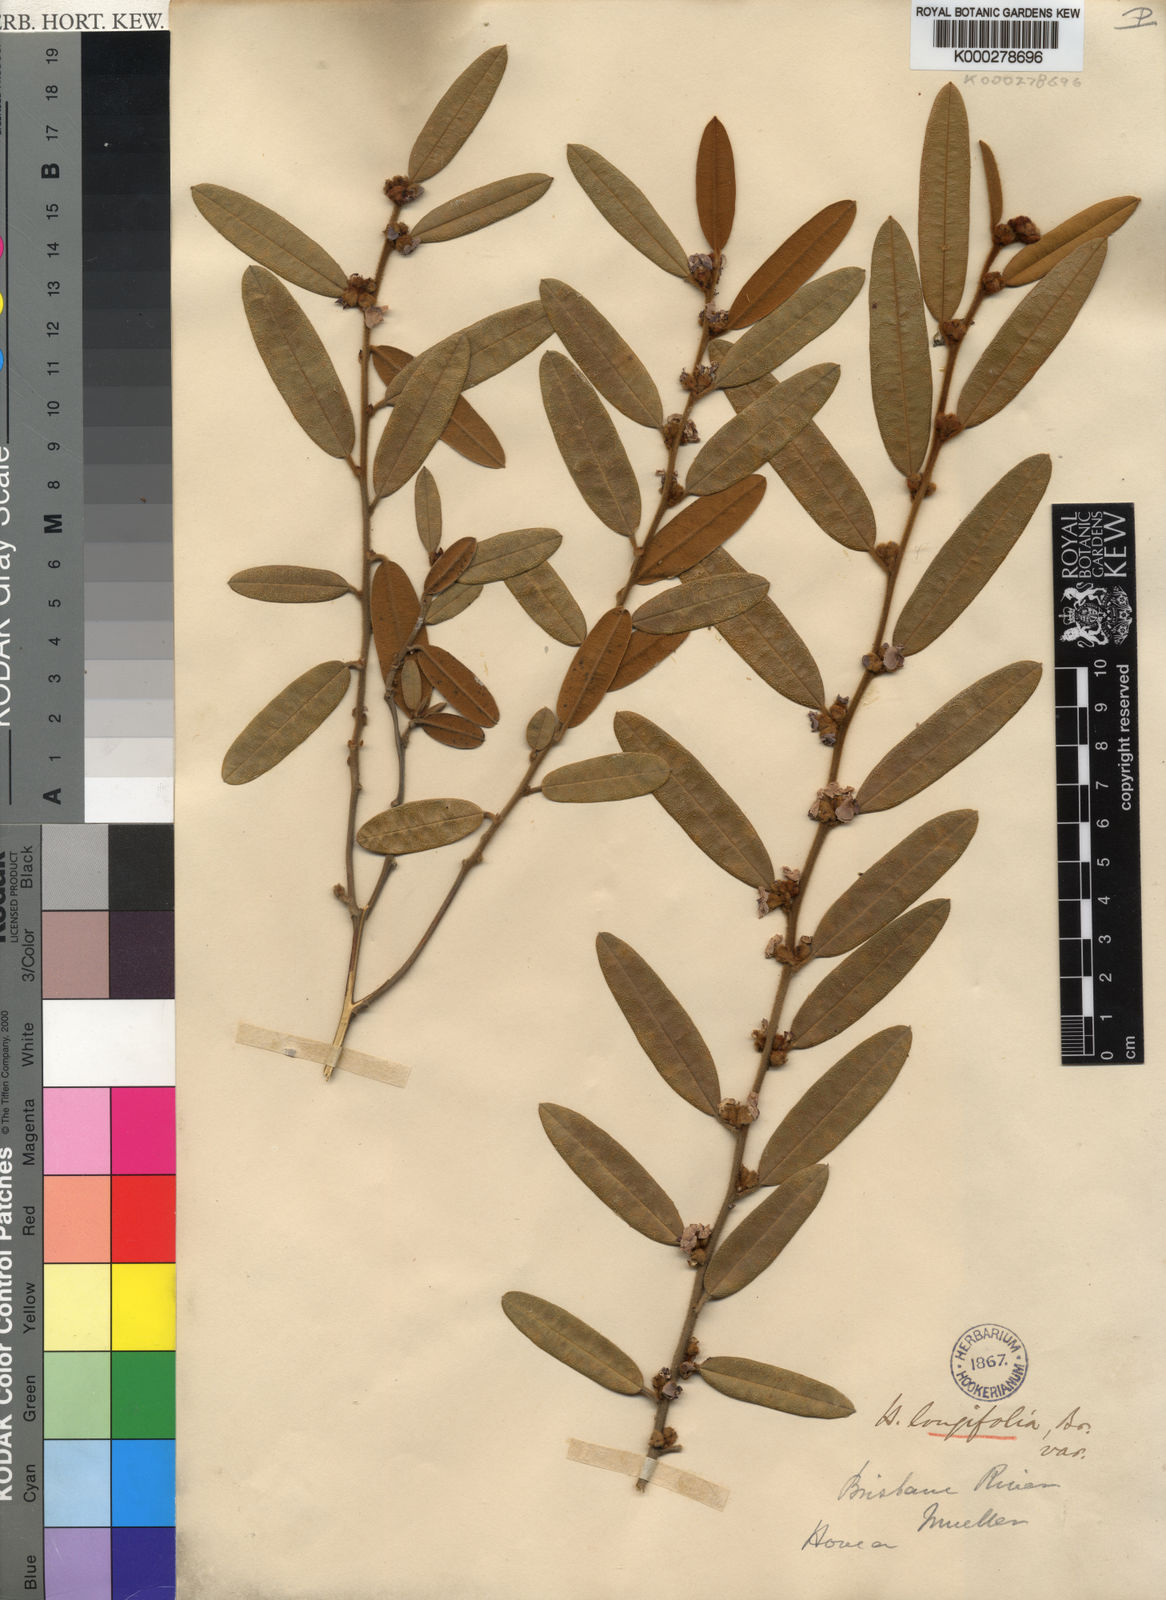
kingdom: Plantae
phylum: Tracheophyta
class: Magnoliopsida
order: Fabales
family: Fabaceae
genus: Hovea
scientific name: Hovea longifolia
